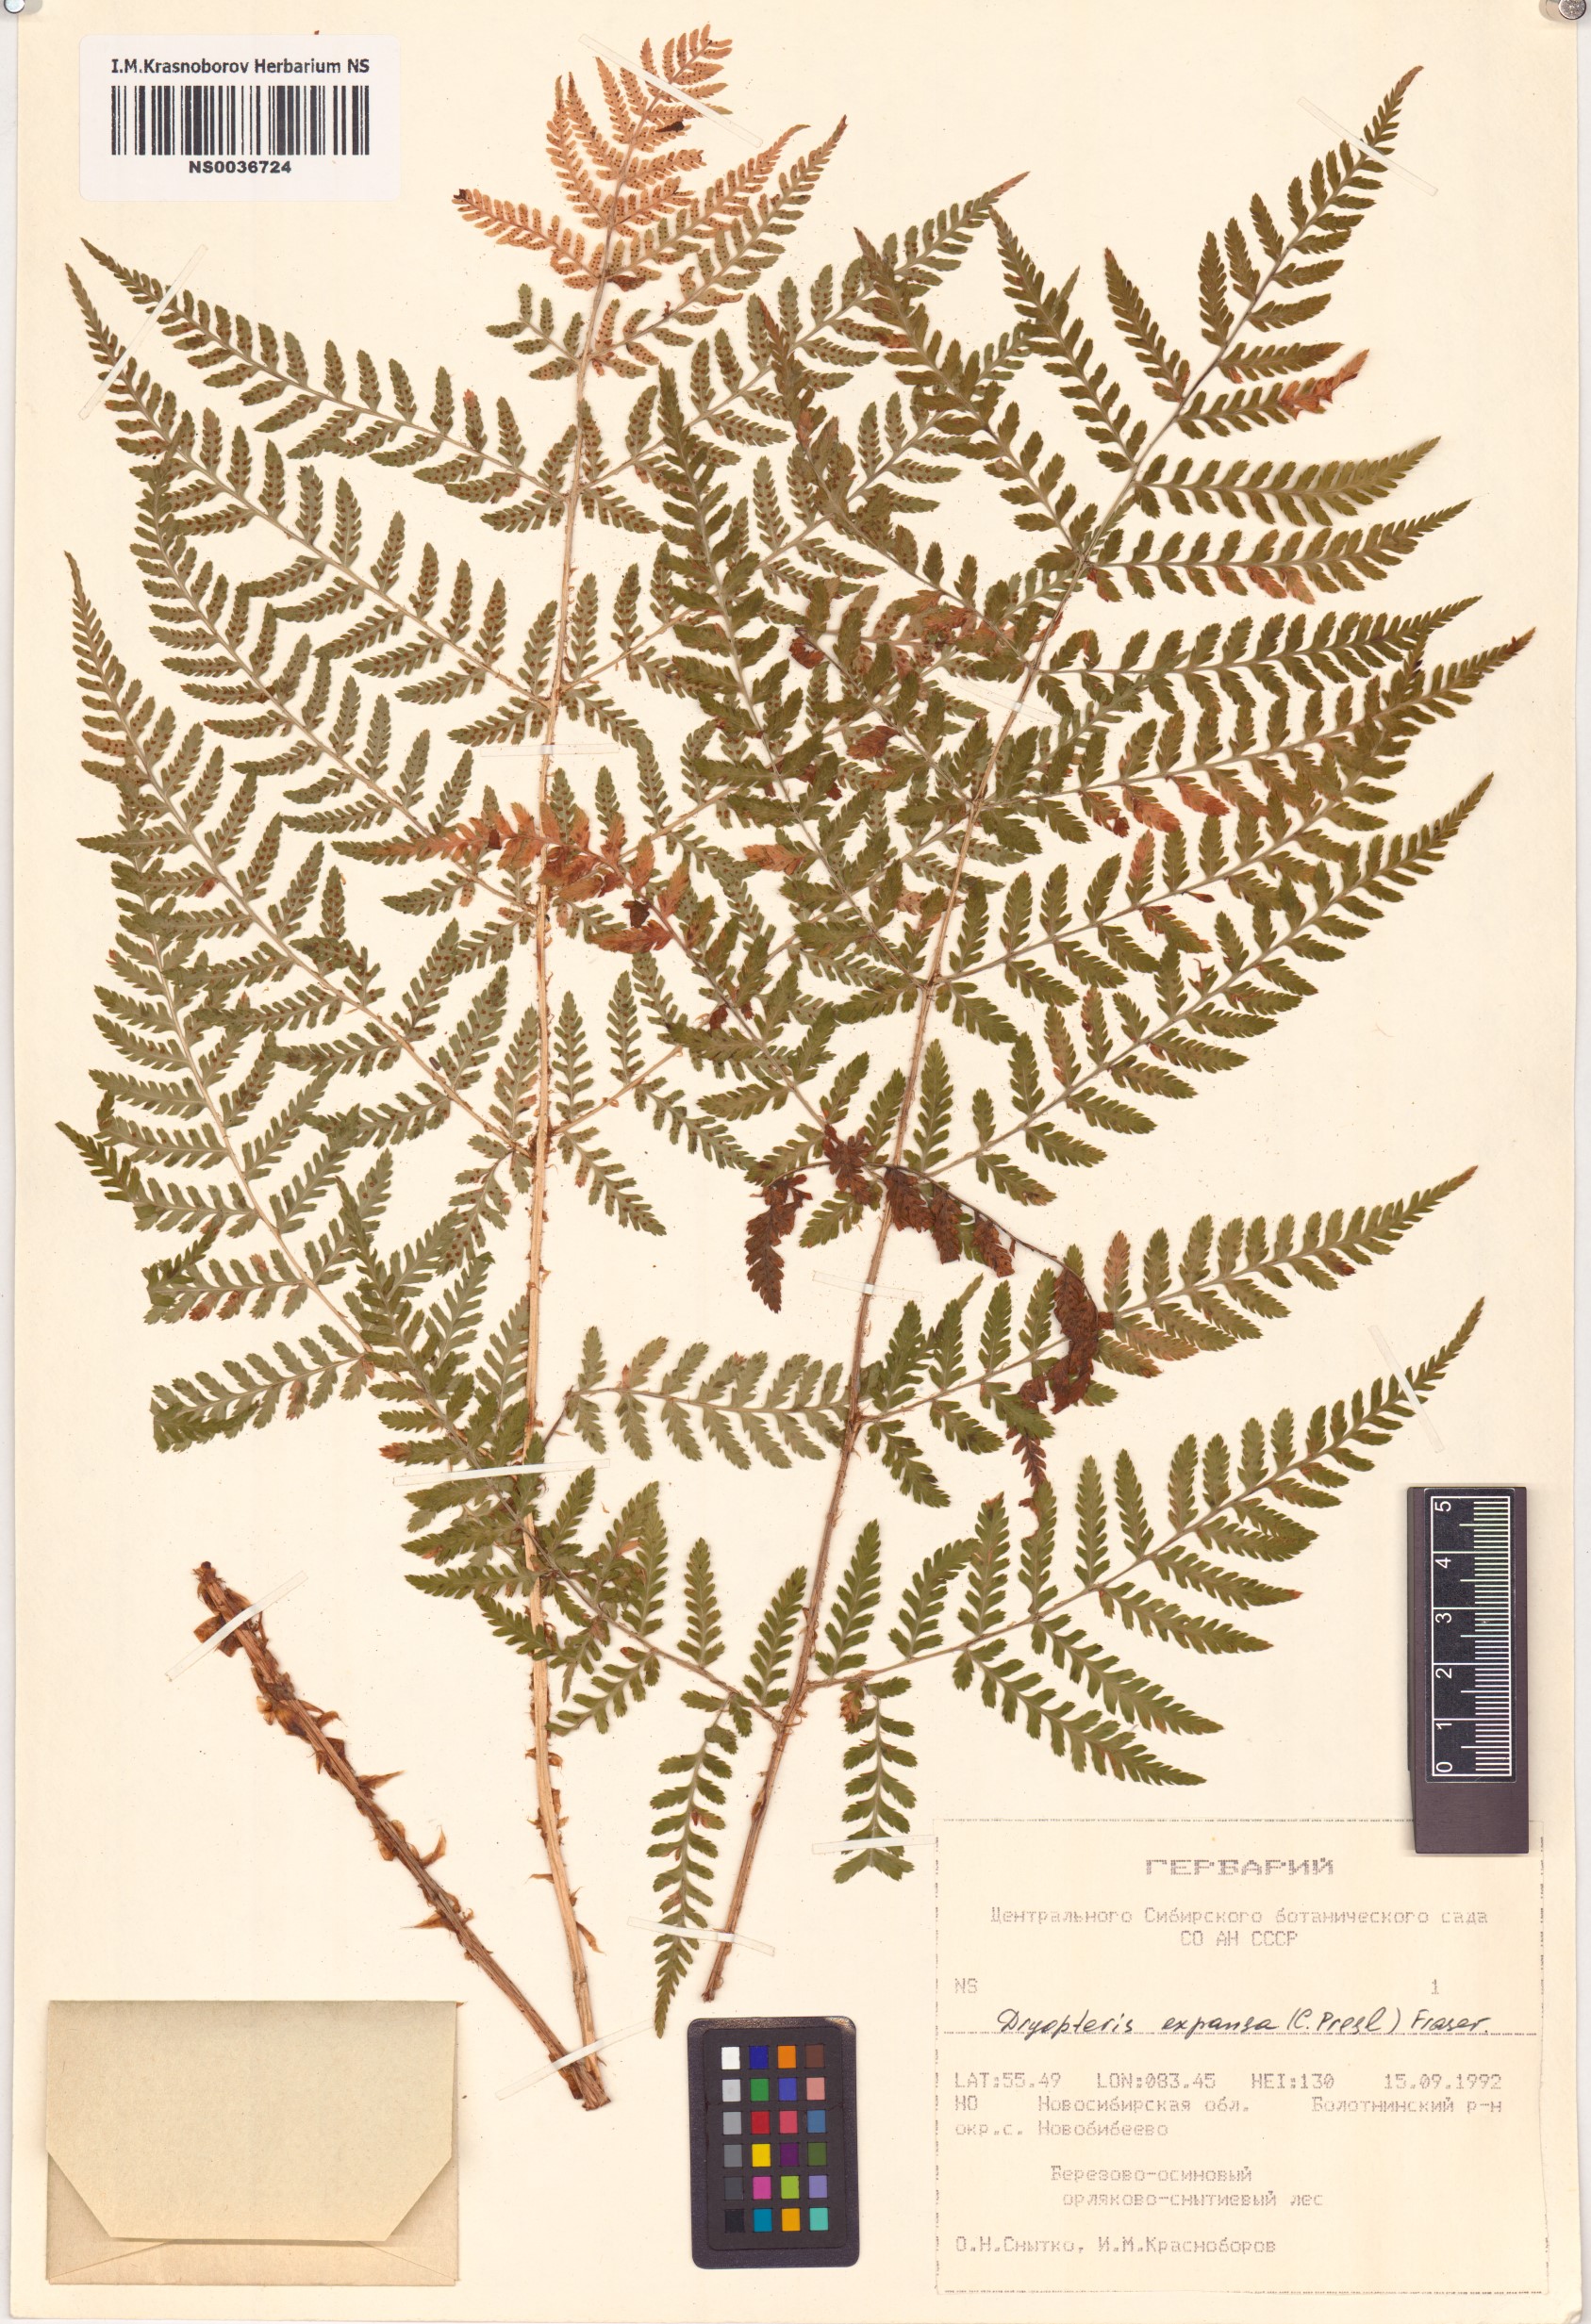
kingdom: Plantae
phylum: Tracheophyta
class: Polypodiopsida
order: Polypodiales
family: Dryopteridaceae
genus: Dryopteris
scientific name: Dryopteris expansa
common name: Northern buckler fern
